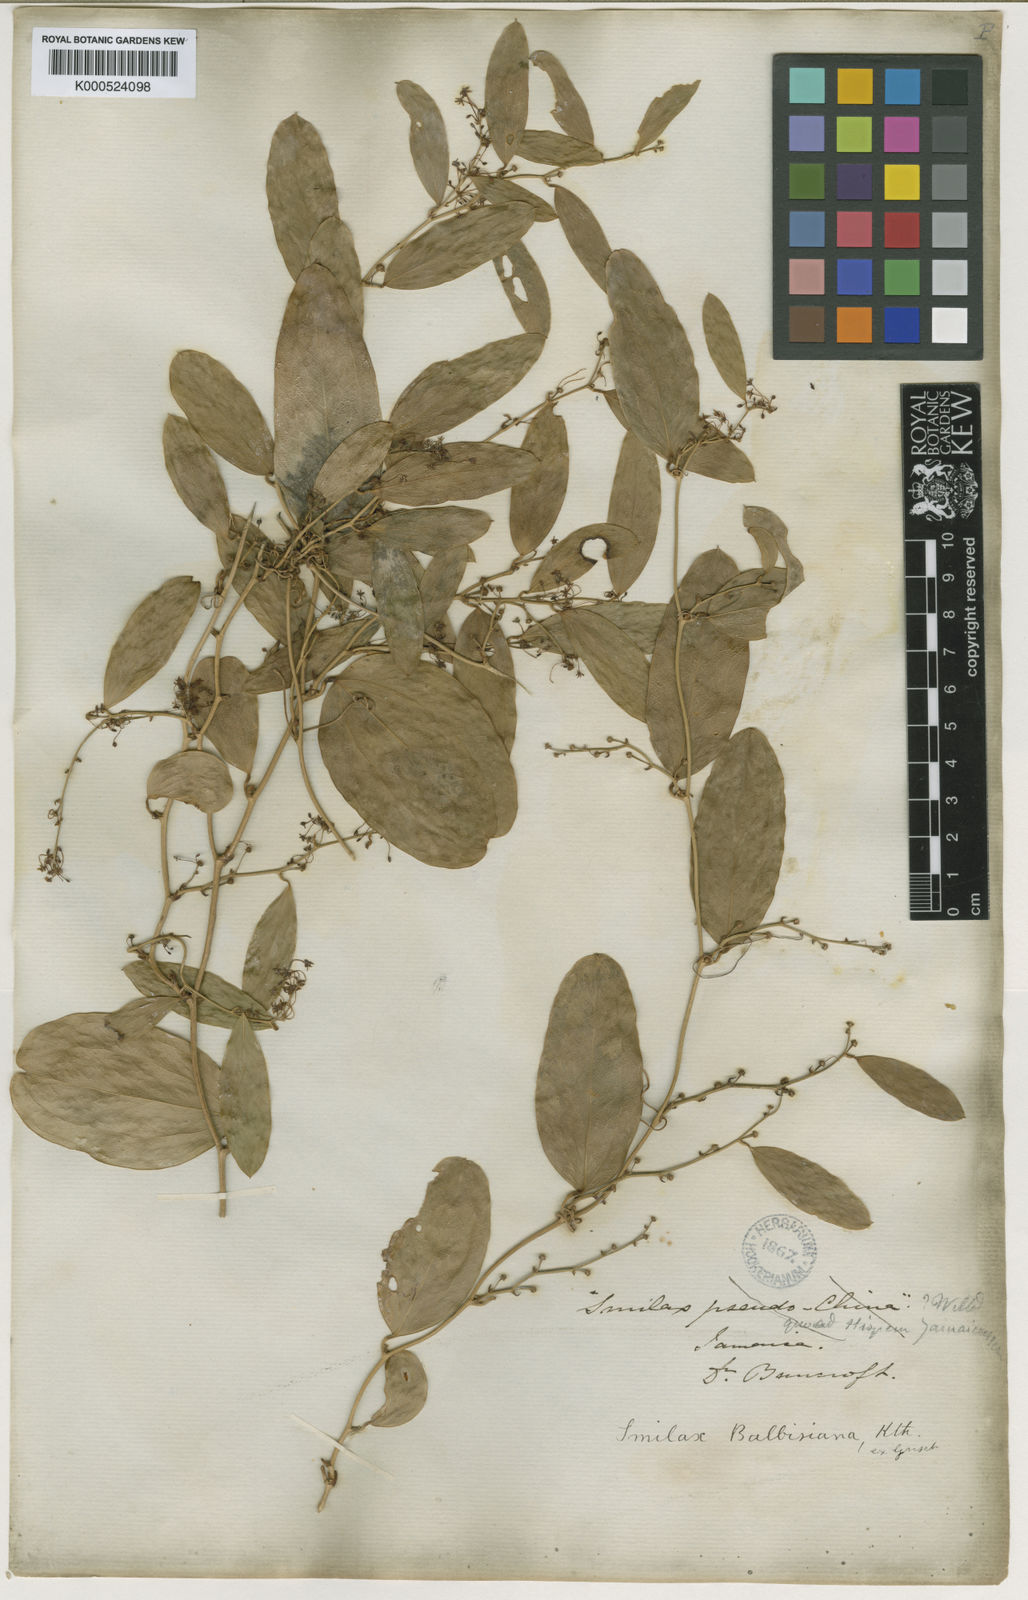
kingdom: Plantae
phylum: Tracheophyta
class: Liliopsida
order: Liliales
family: Smilacaceae
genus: Smilax
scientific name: Smilax domingensis
